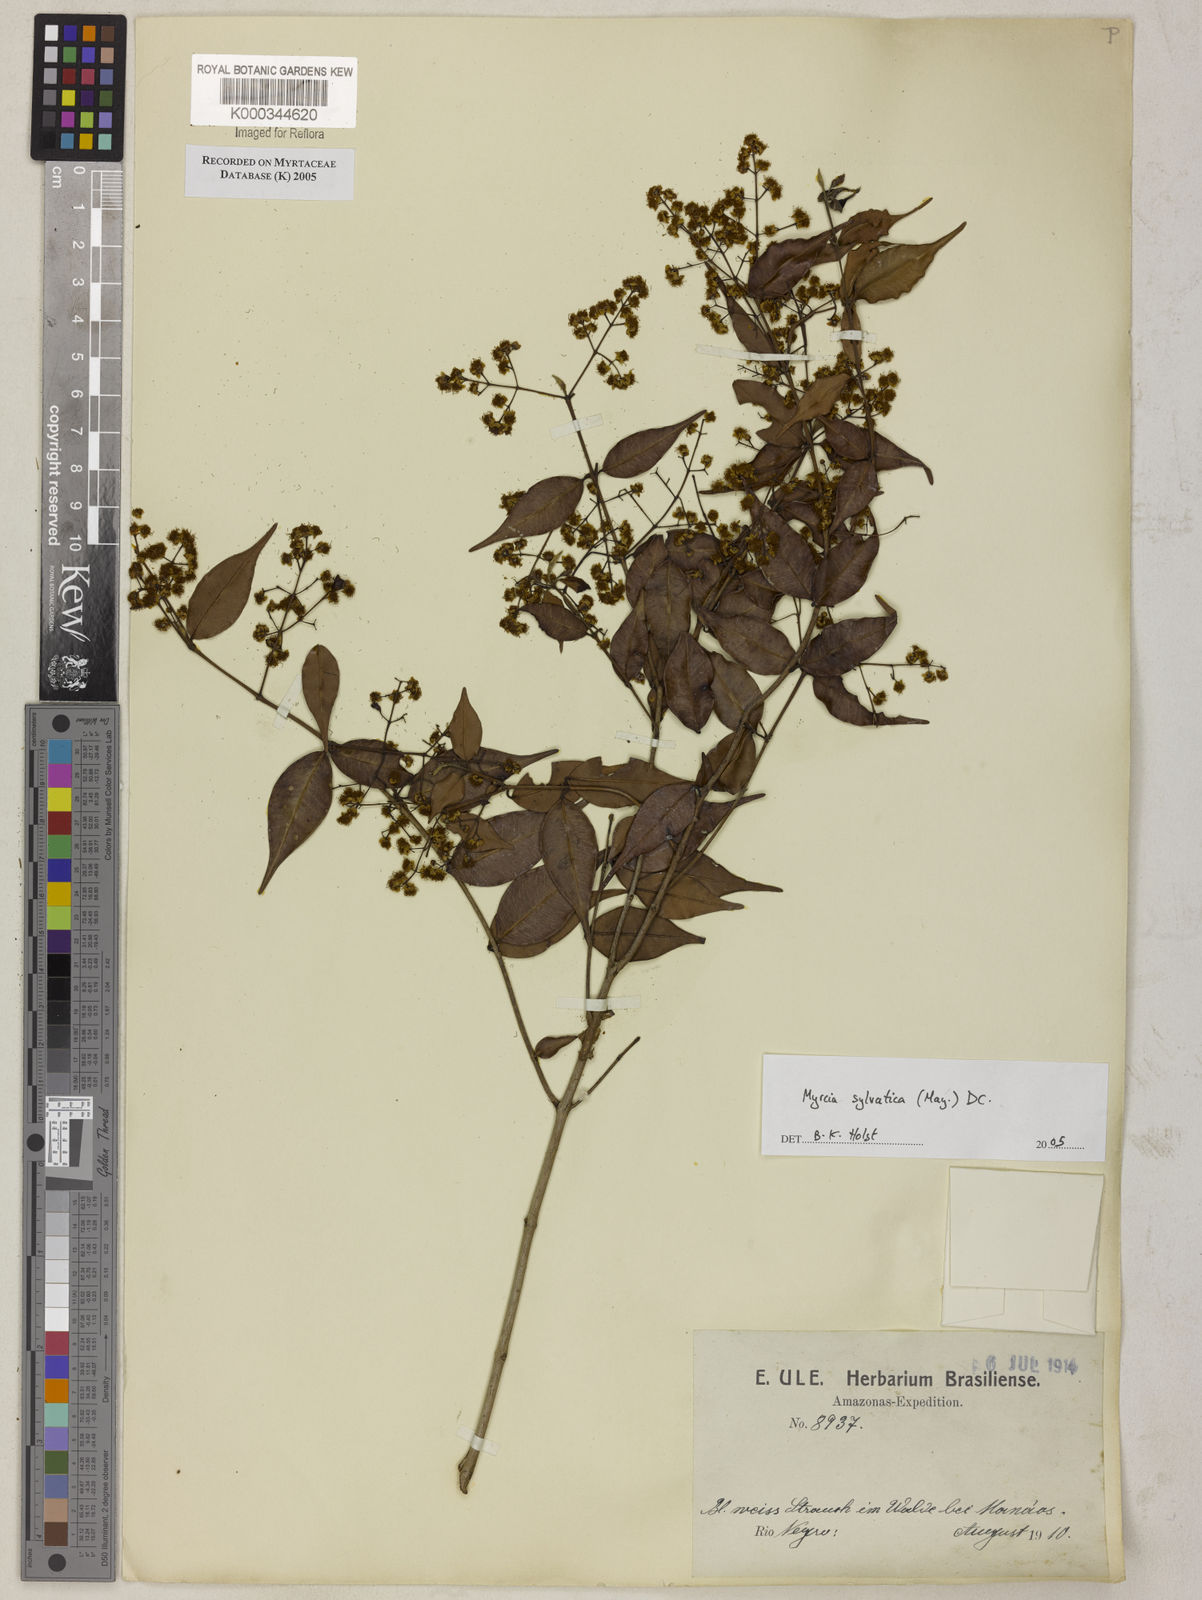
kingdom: Plantae
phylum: Tracheophyta
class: Magnoliopsida
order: Myrtales
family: Myrtaceae
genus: Myrcia
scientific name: Myrcia sylvatica
